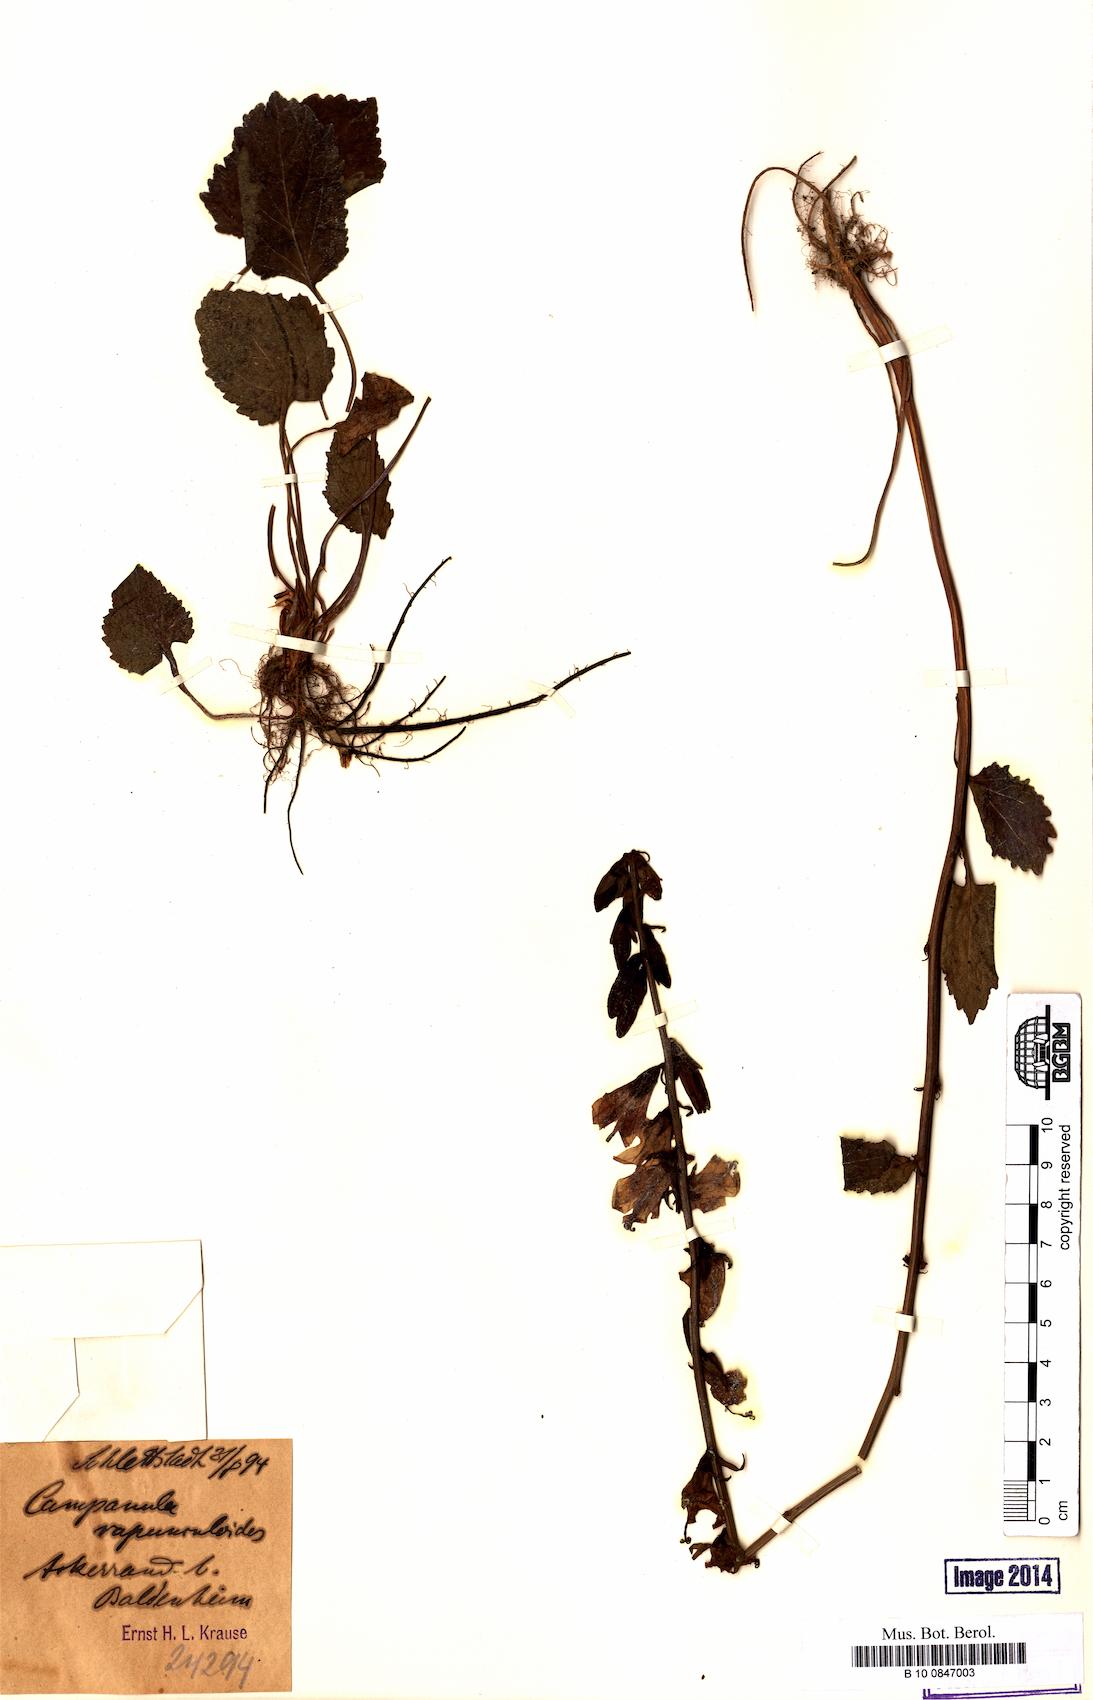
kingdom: Plantae
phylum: Tracheophyta
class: Magnoliopsida
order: Asterales
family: Campanulaceae
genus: Campanula
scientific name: Campanula rapunculoides
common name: Creeping bellflower
